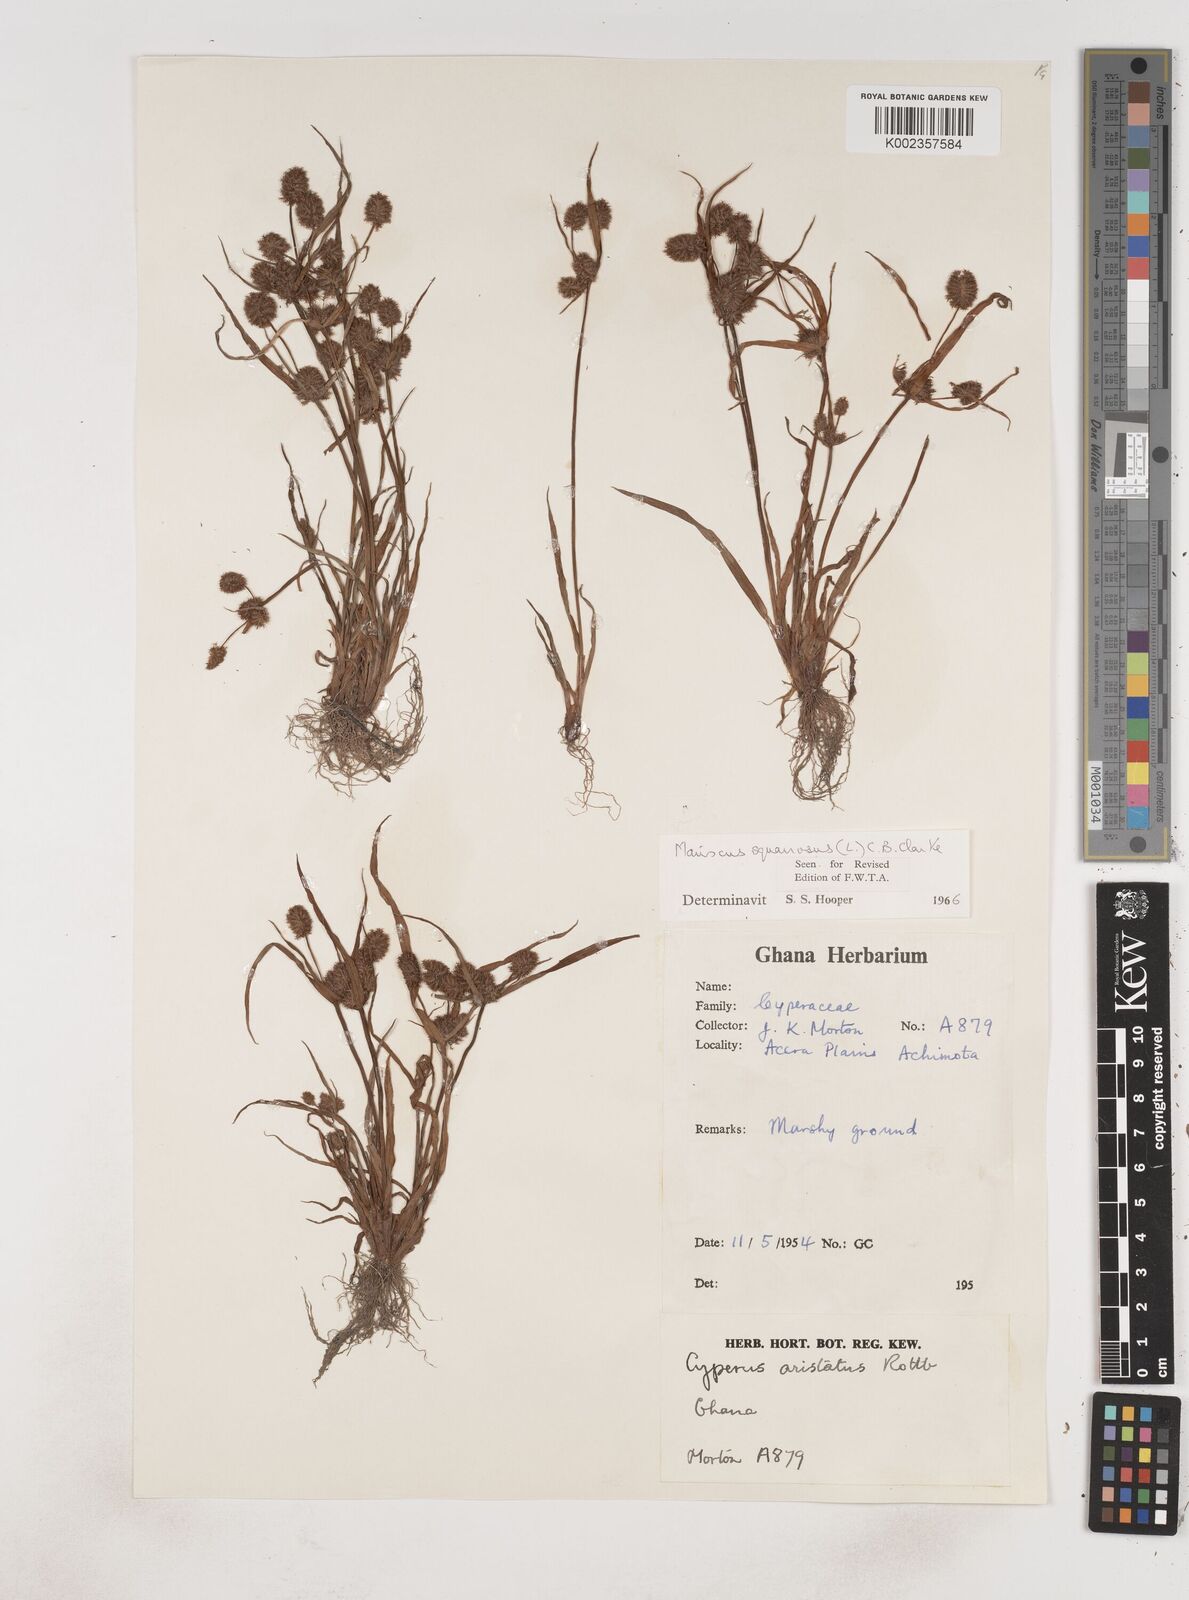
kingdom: Plantae
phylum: Tracheophyta
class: Liliopsida
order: Poales
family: Cyperaceae
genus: Cyperus
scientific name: Cyperus squarrosus
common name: Awned cyperus
